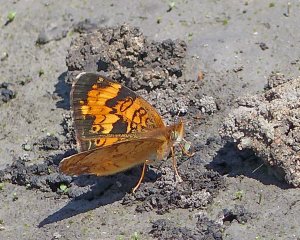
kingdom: Animalia
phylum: Arthropoda
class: Insecta
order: Lepidoptera
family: Nymphalidae
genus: Phyciodes
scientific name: Phyciodes tharos
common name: Northern Crescent
